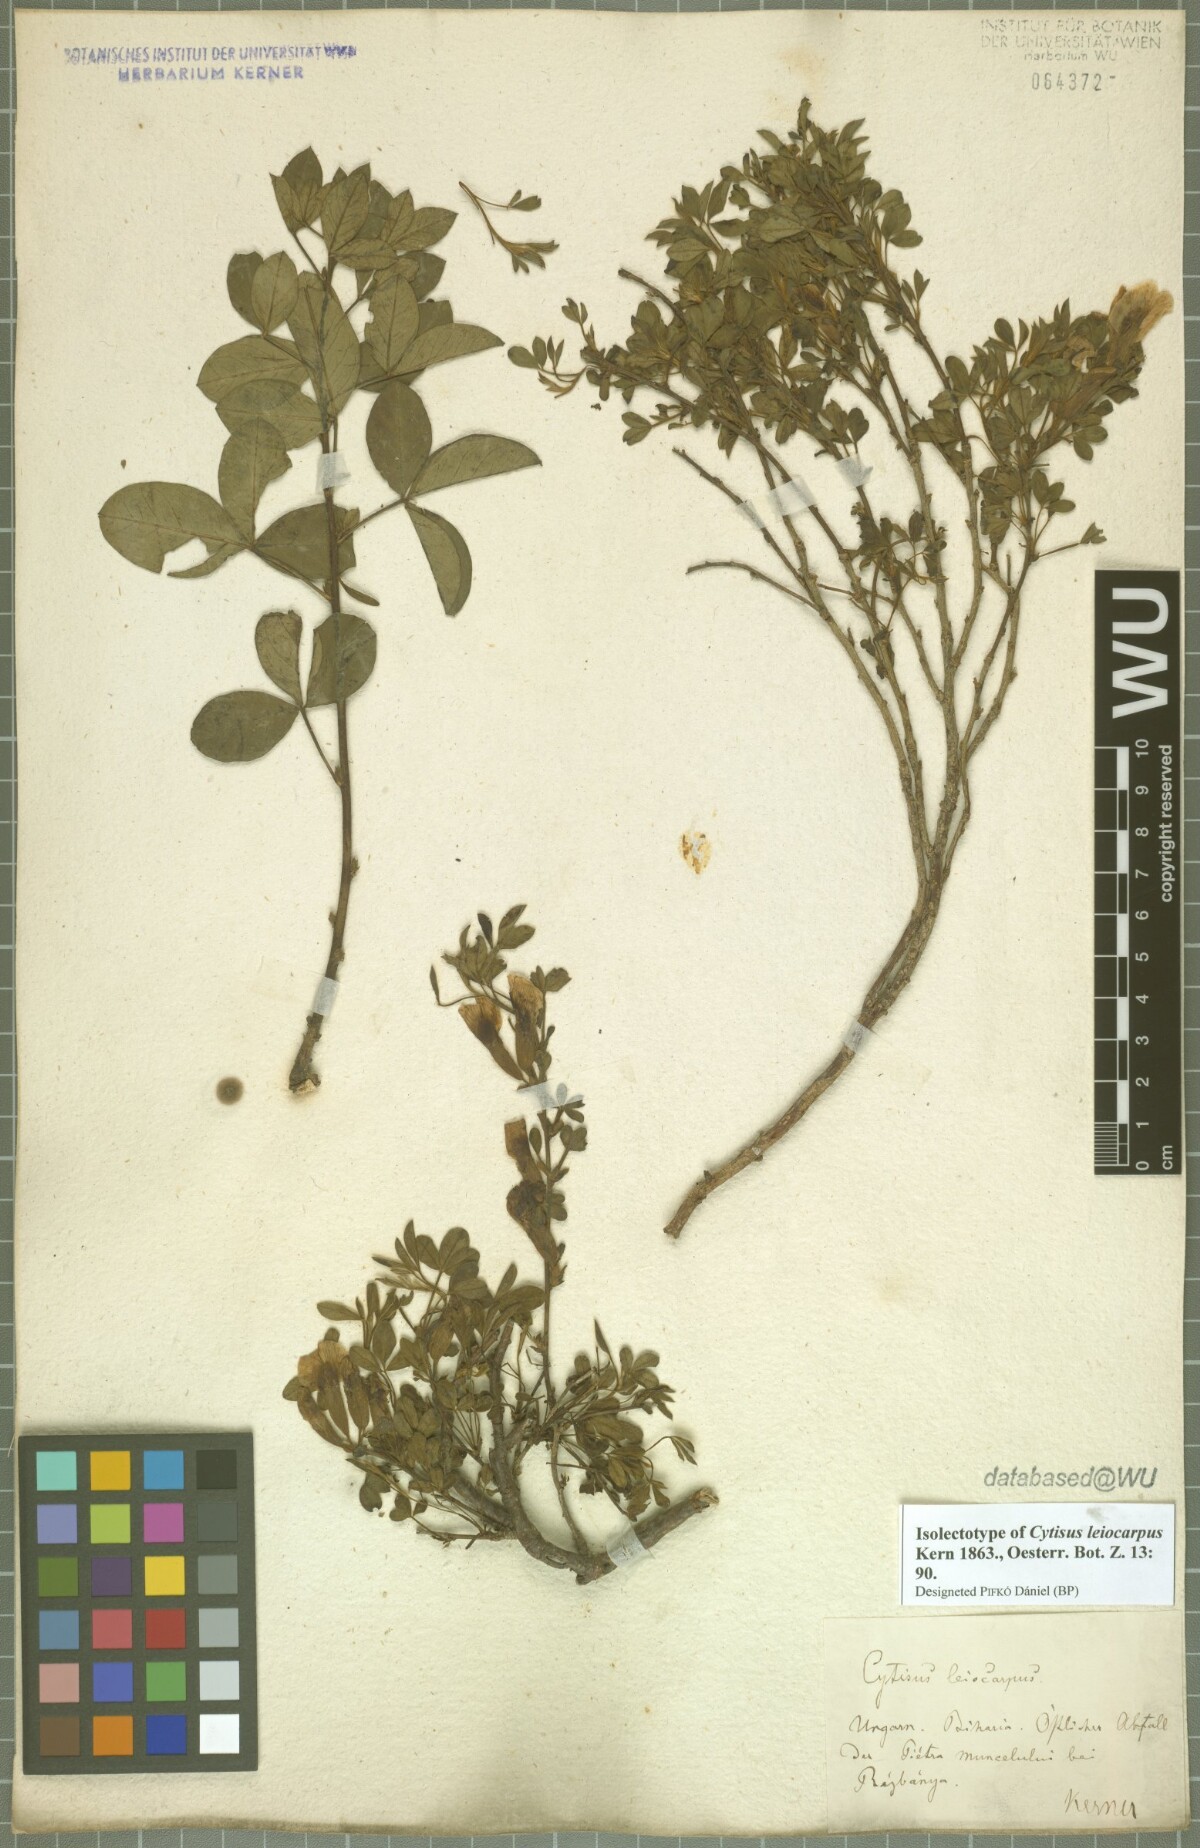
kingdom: Plantae
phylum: Tracheophyta
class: Magnoliopsida
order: Fabales
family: Fabaceae
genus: Chamaecytisus
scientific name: Chamaecytisus leiocarpus
